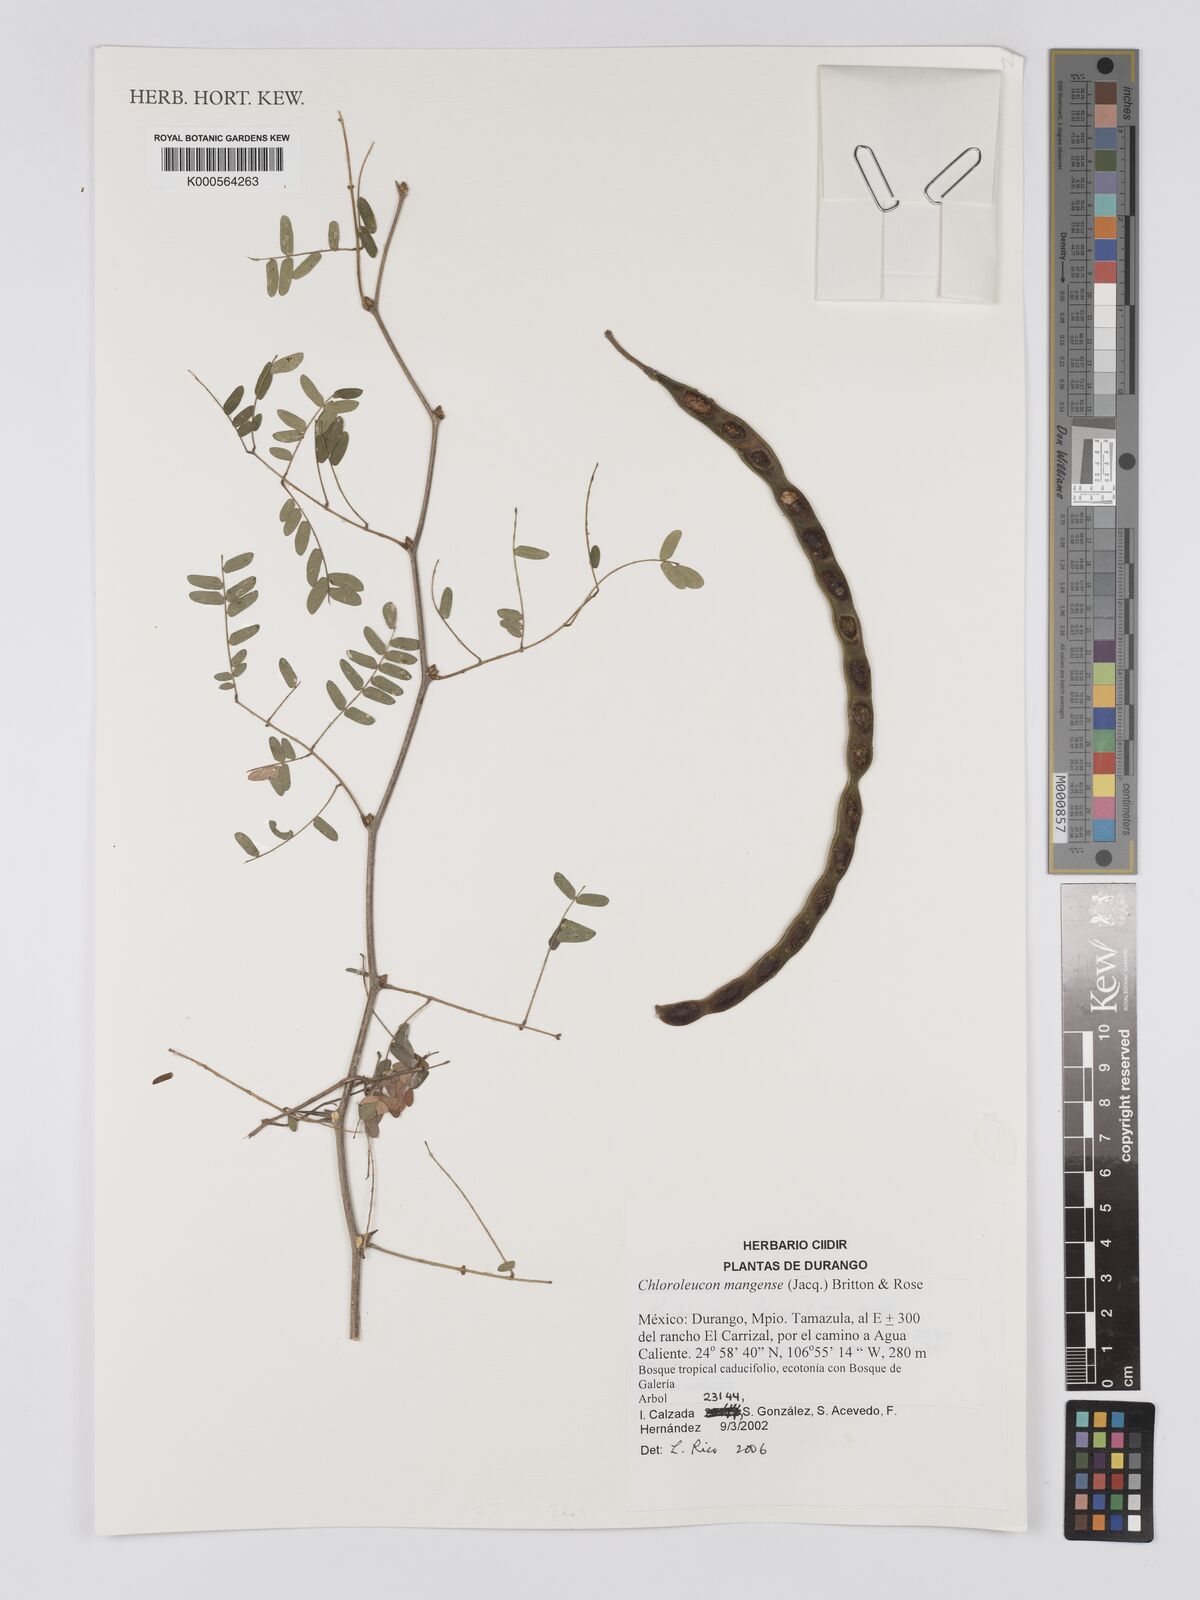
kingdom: Plantae
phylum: Tracheophyta
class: Magnoliopsida
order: Fabales
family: Fabaceae
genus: Chloroleucon
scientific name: Chloroleucon mangense
